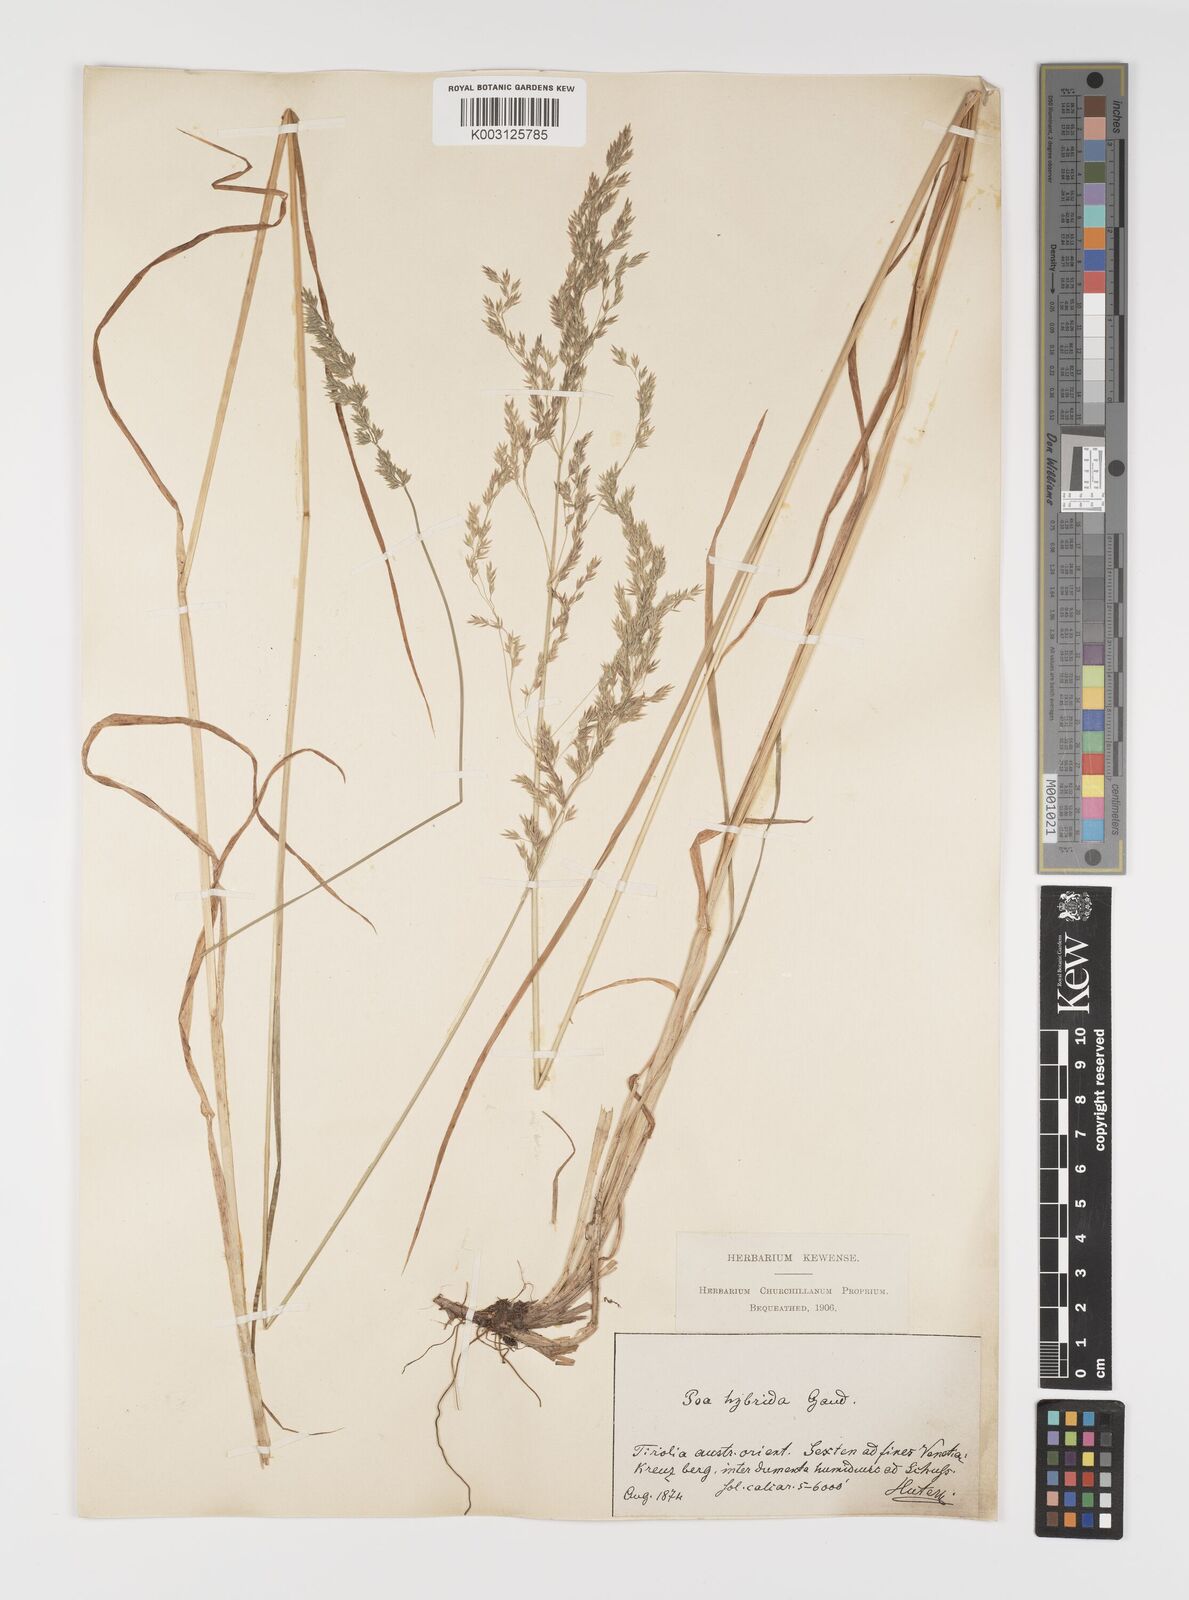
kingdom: Plantae
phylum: Tracheophyta
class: Liliopsida
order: Poales
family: Poaceae
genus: Poa
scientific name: Poa hybrida
